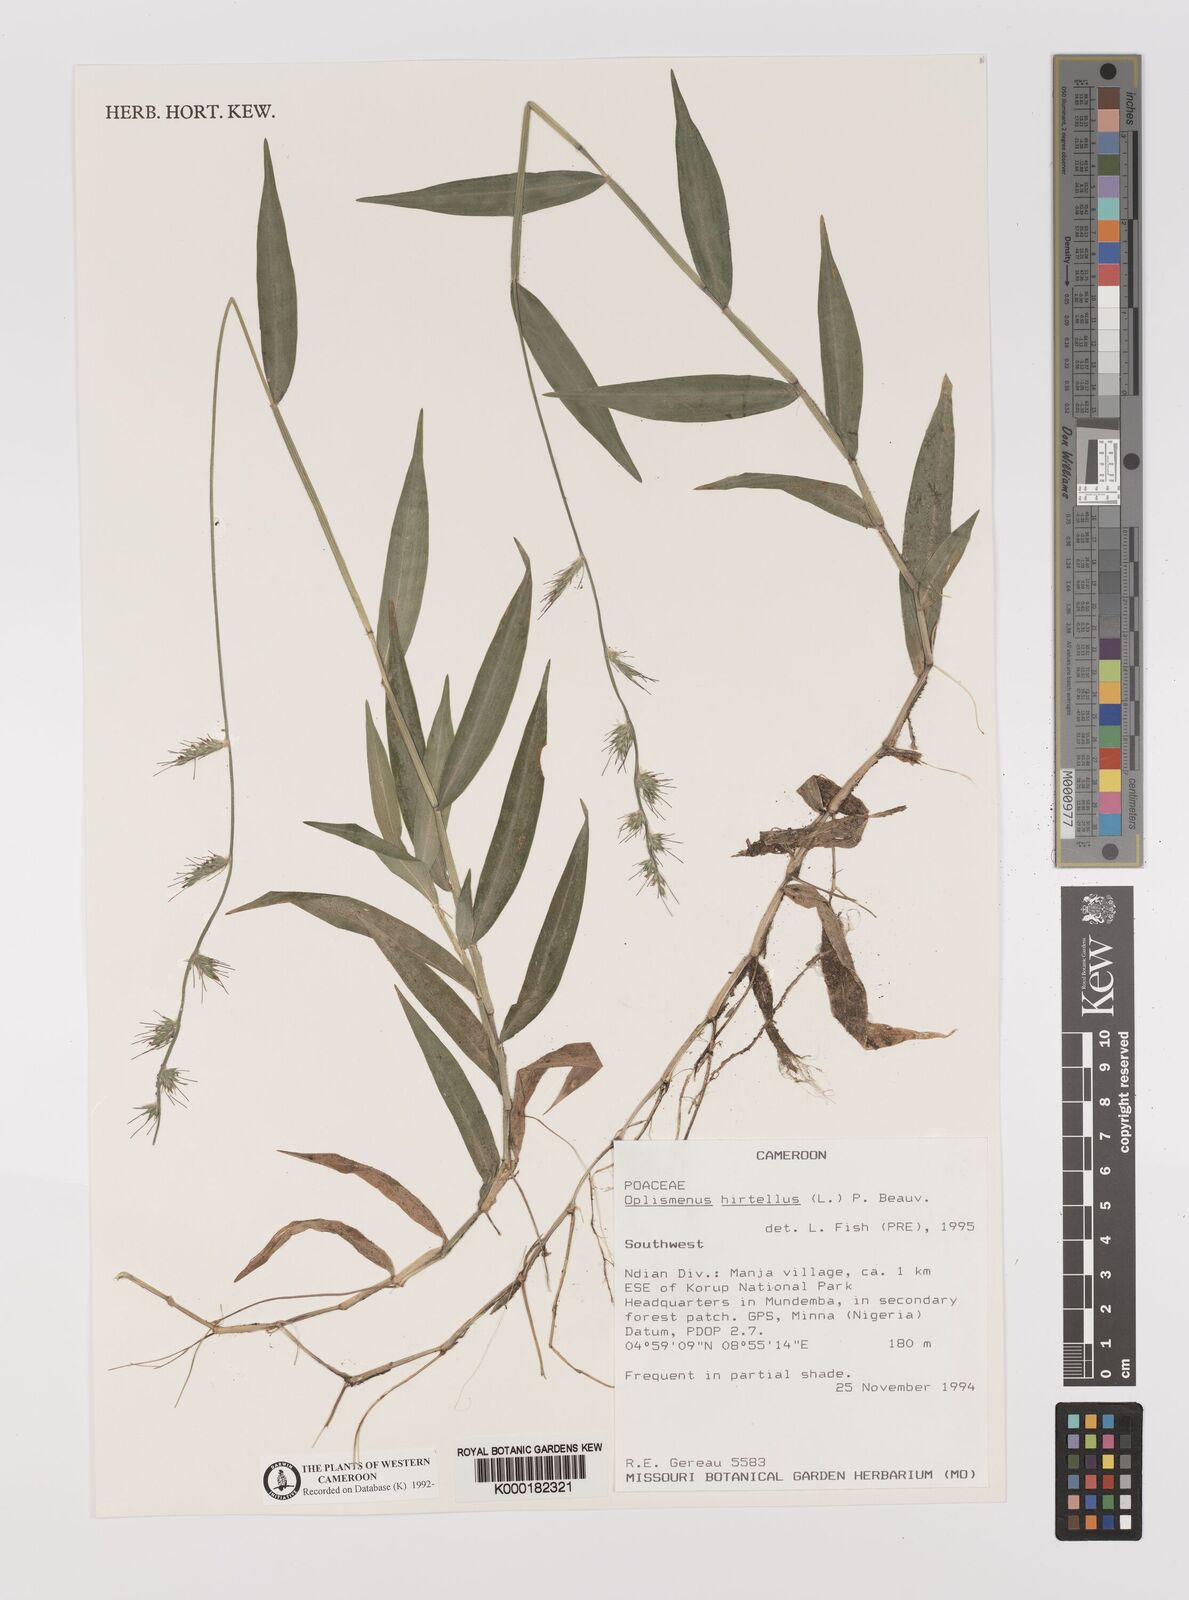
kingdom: Plantae
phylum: Tracheophyta
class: Liliopsida
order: Poales
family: Poaceae
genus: Oplismenus
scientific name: Oplismenus hirtellus
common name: Basketgrass
